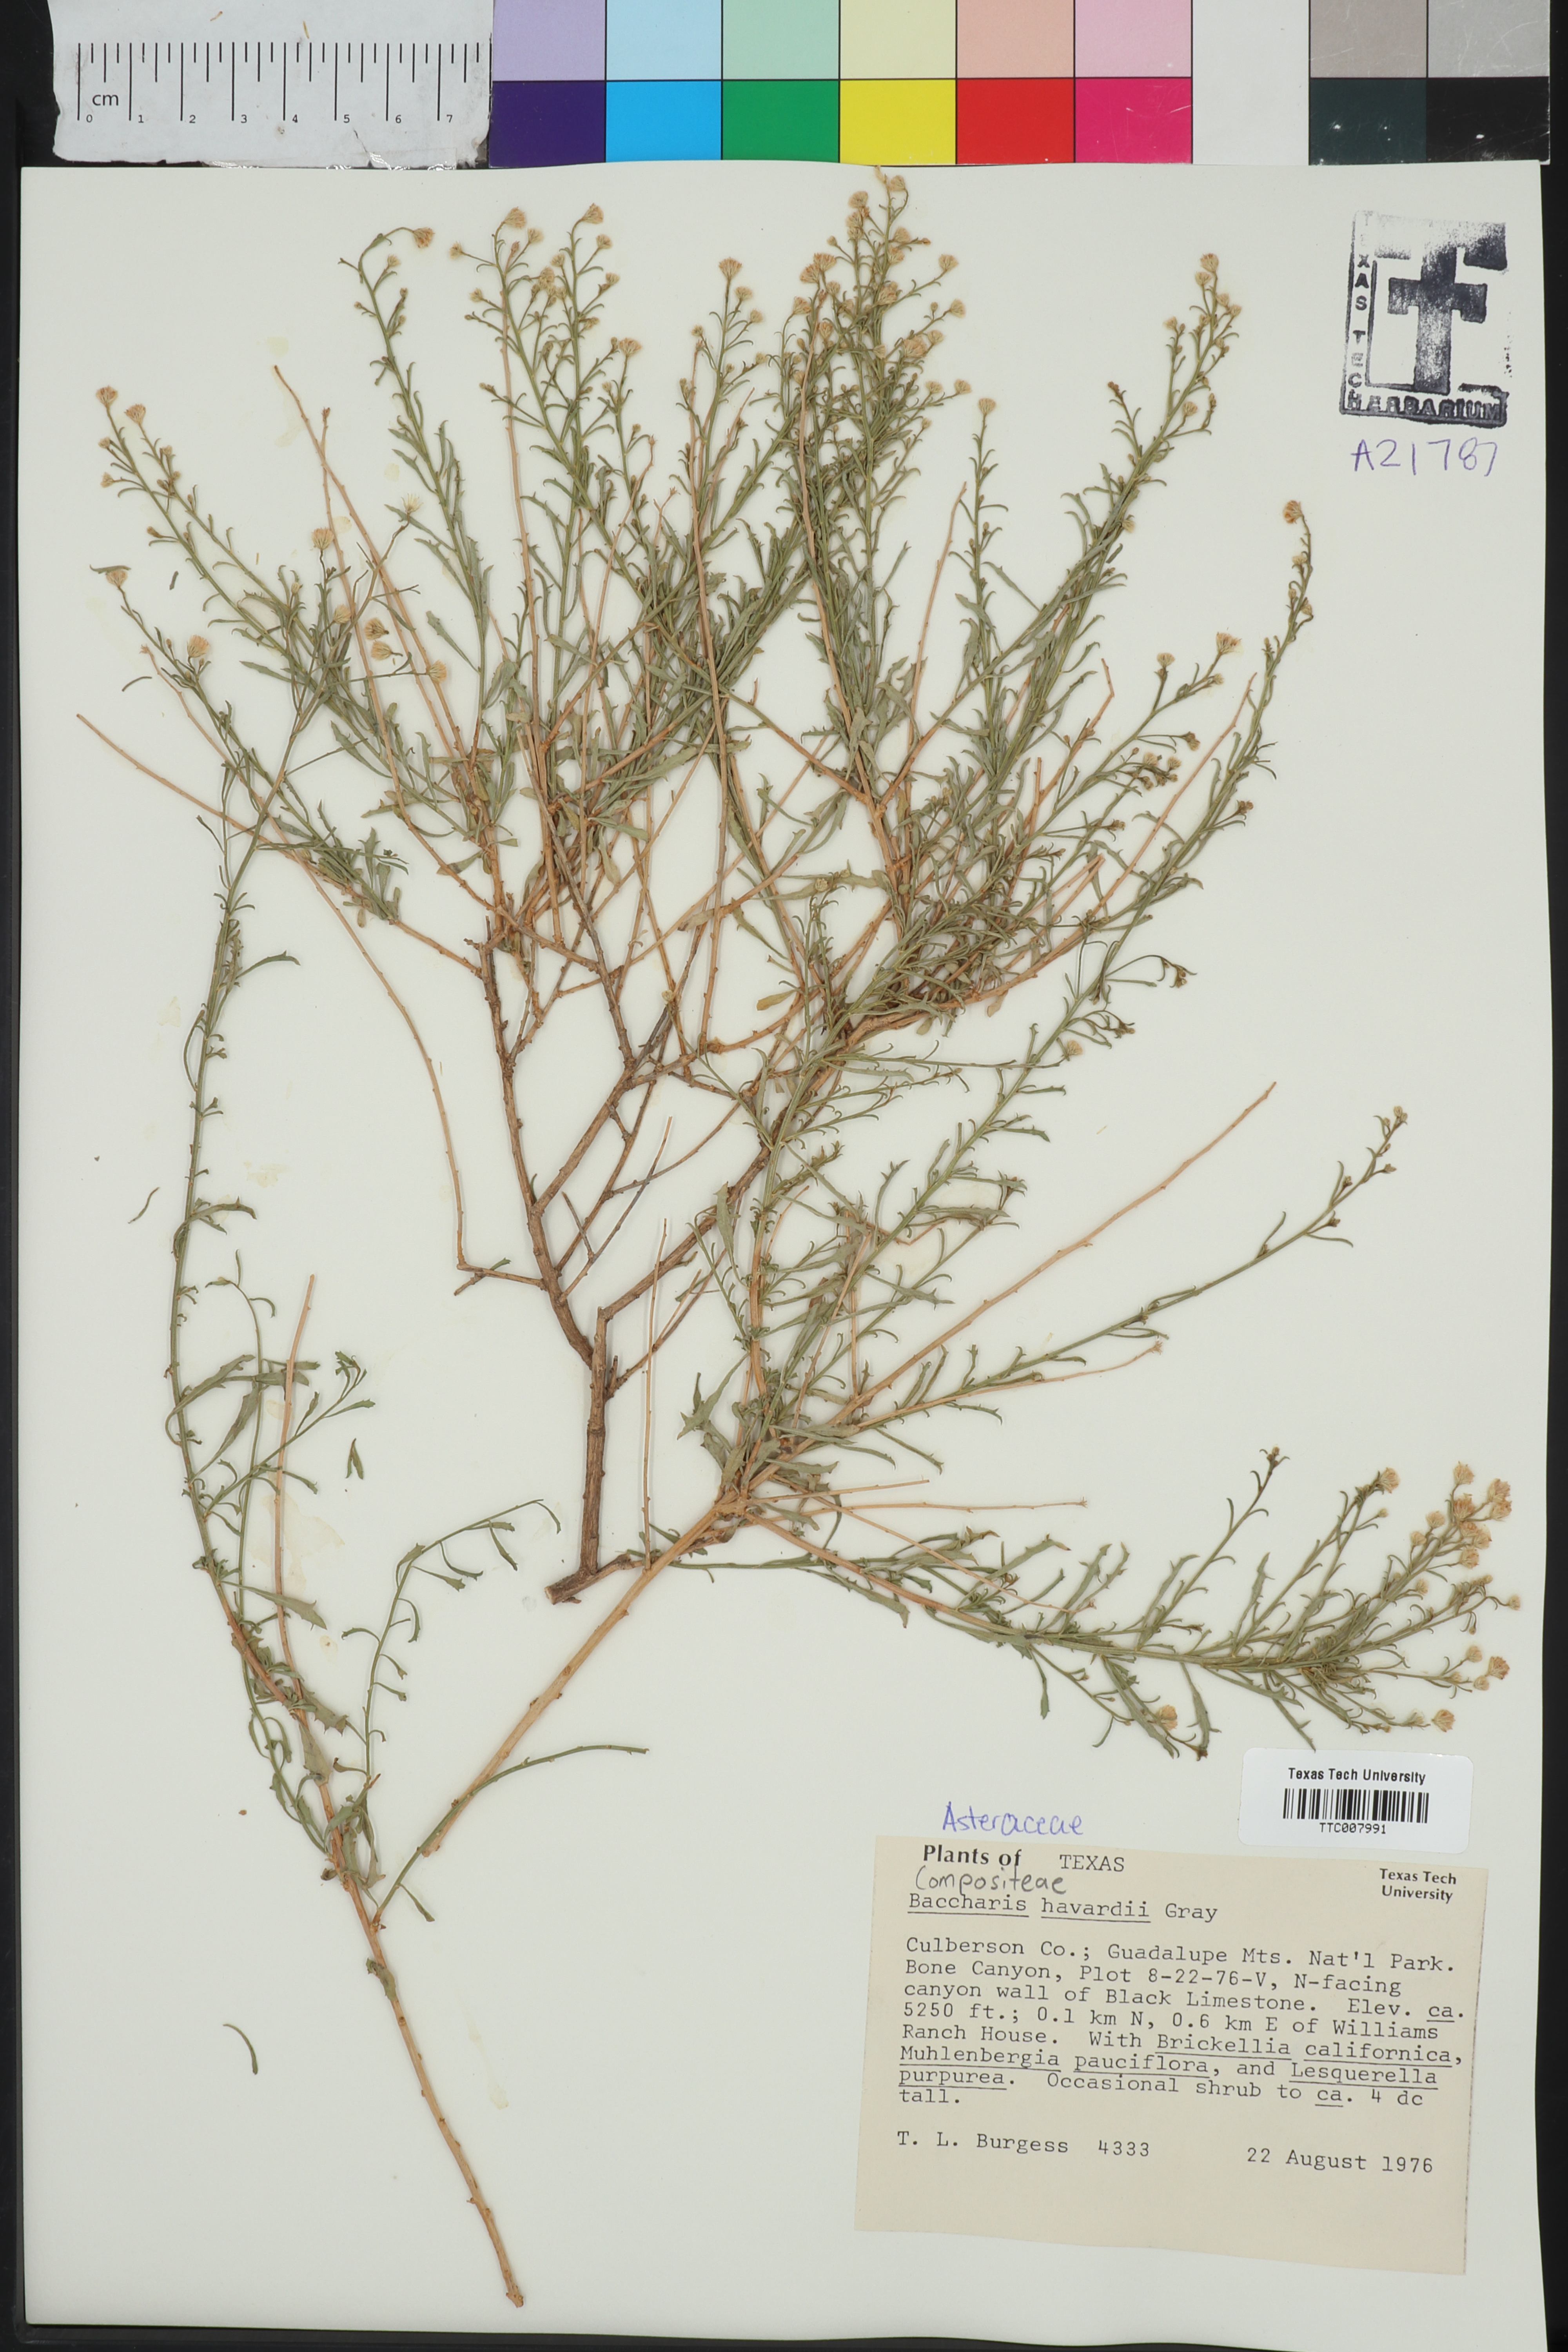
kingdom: Plantae
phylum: Tracheophyta
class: Magnoliopsida
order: Asterales
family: Asteraceae
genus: Baccharis
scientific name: Baccharis havardii
